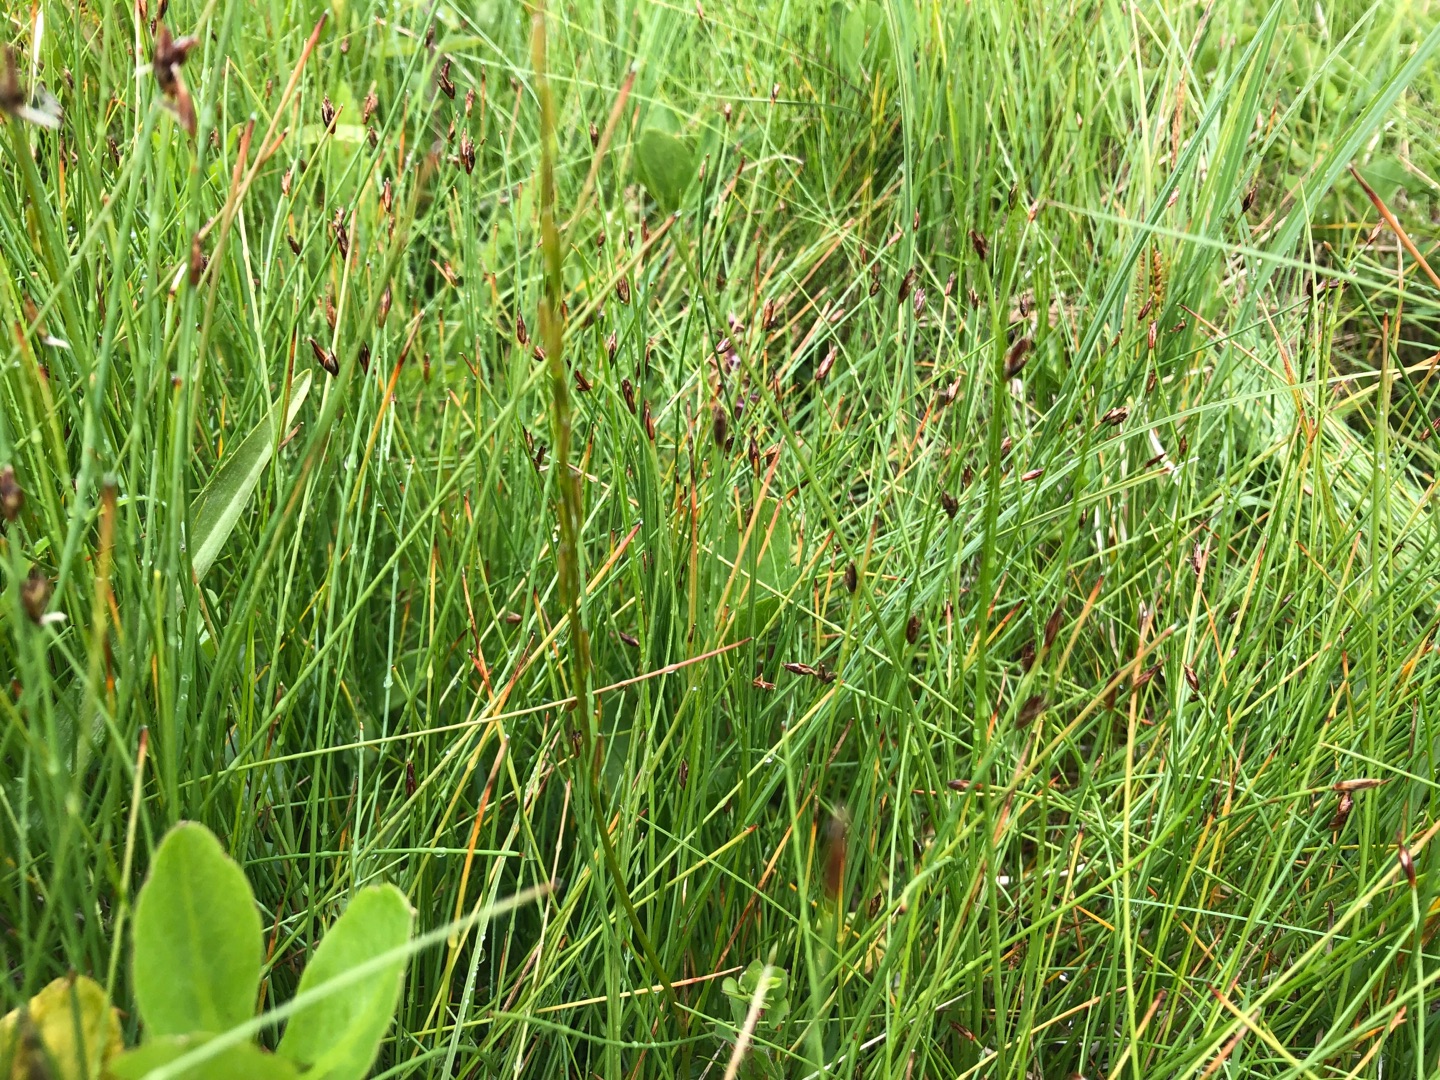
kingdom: Plantae
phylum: Tracheophyta
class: Liliopsida
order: Poales
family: Cyperaceae
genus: Eleocharis
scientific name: Eleocharis quinqueflora
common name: Fåblomstret kogleaks
